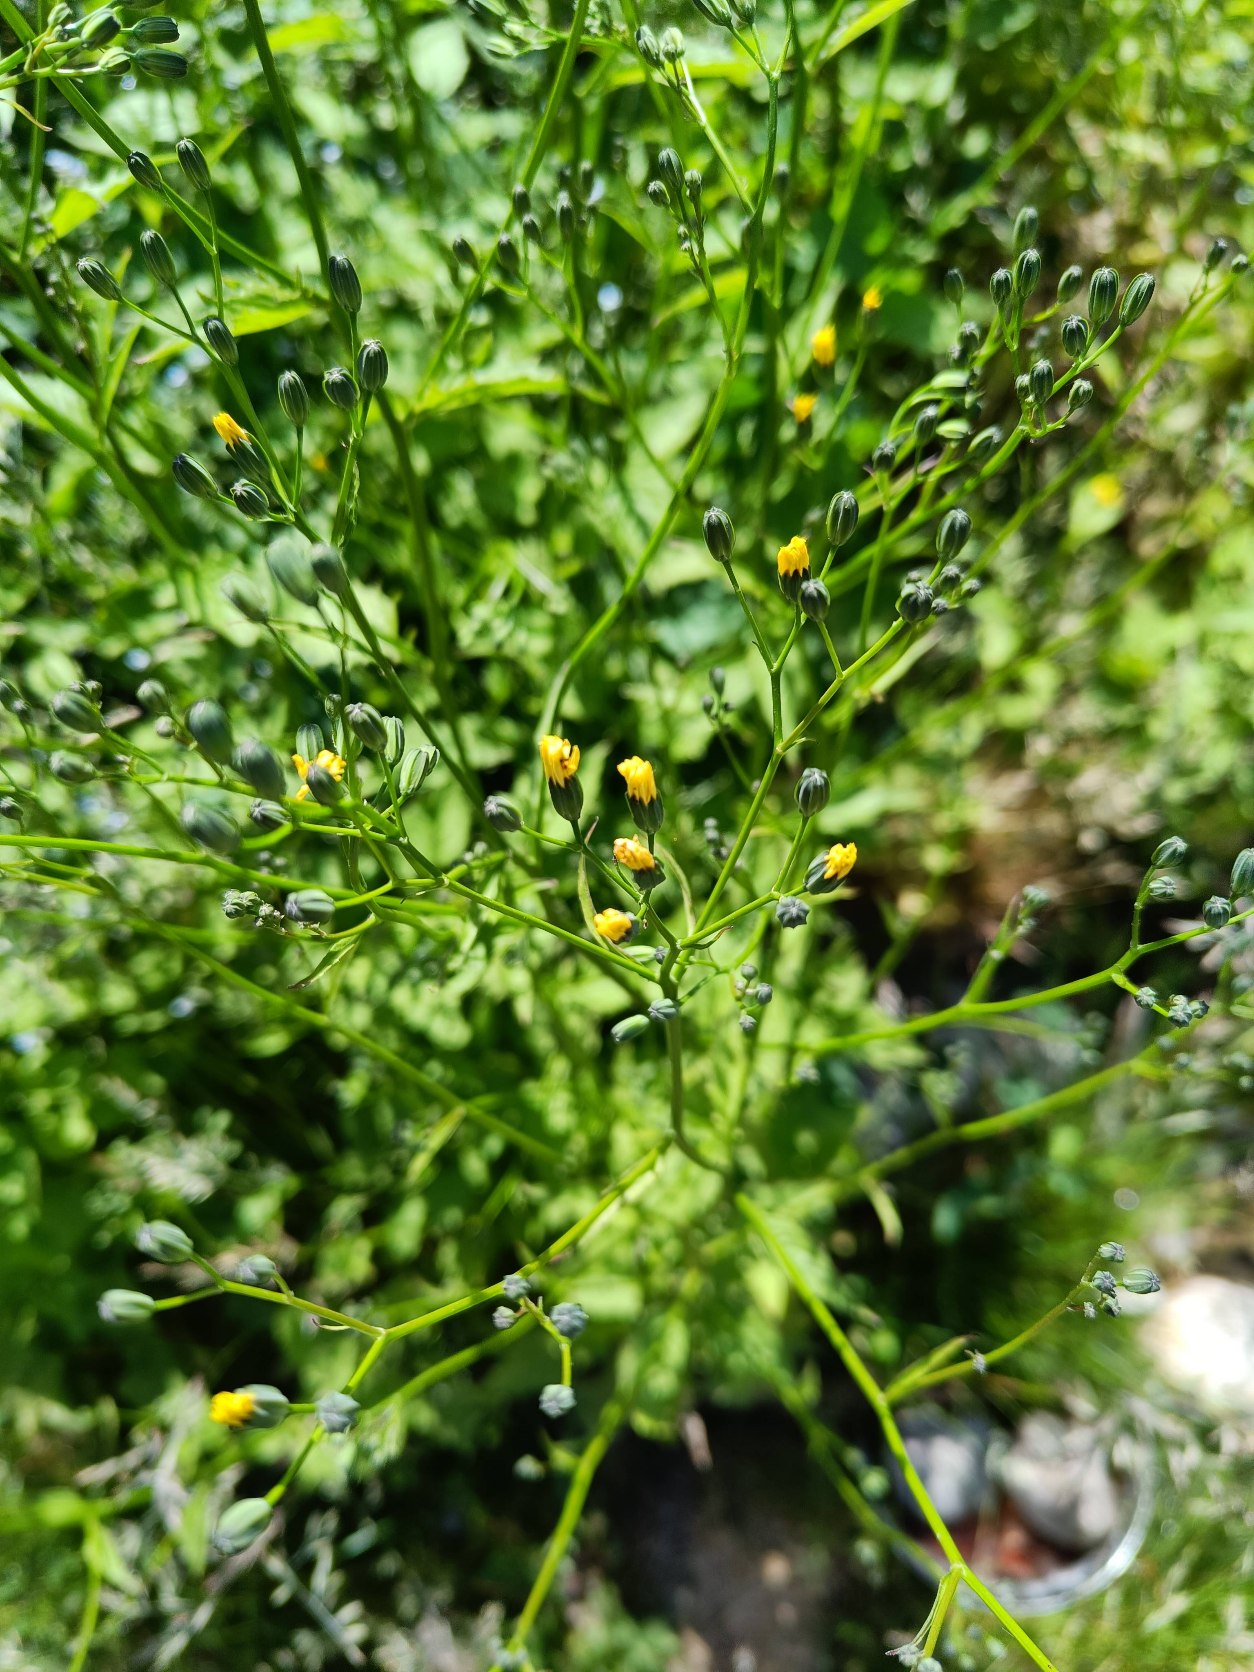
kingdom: Plantae
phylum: Tracheophyta
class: Magnoliopsida
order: Asterales
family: Asteraceae
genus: Lapsana
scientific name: Lapsana communis
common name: Haremad
